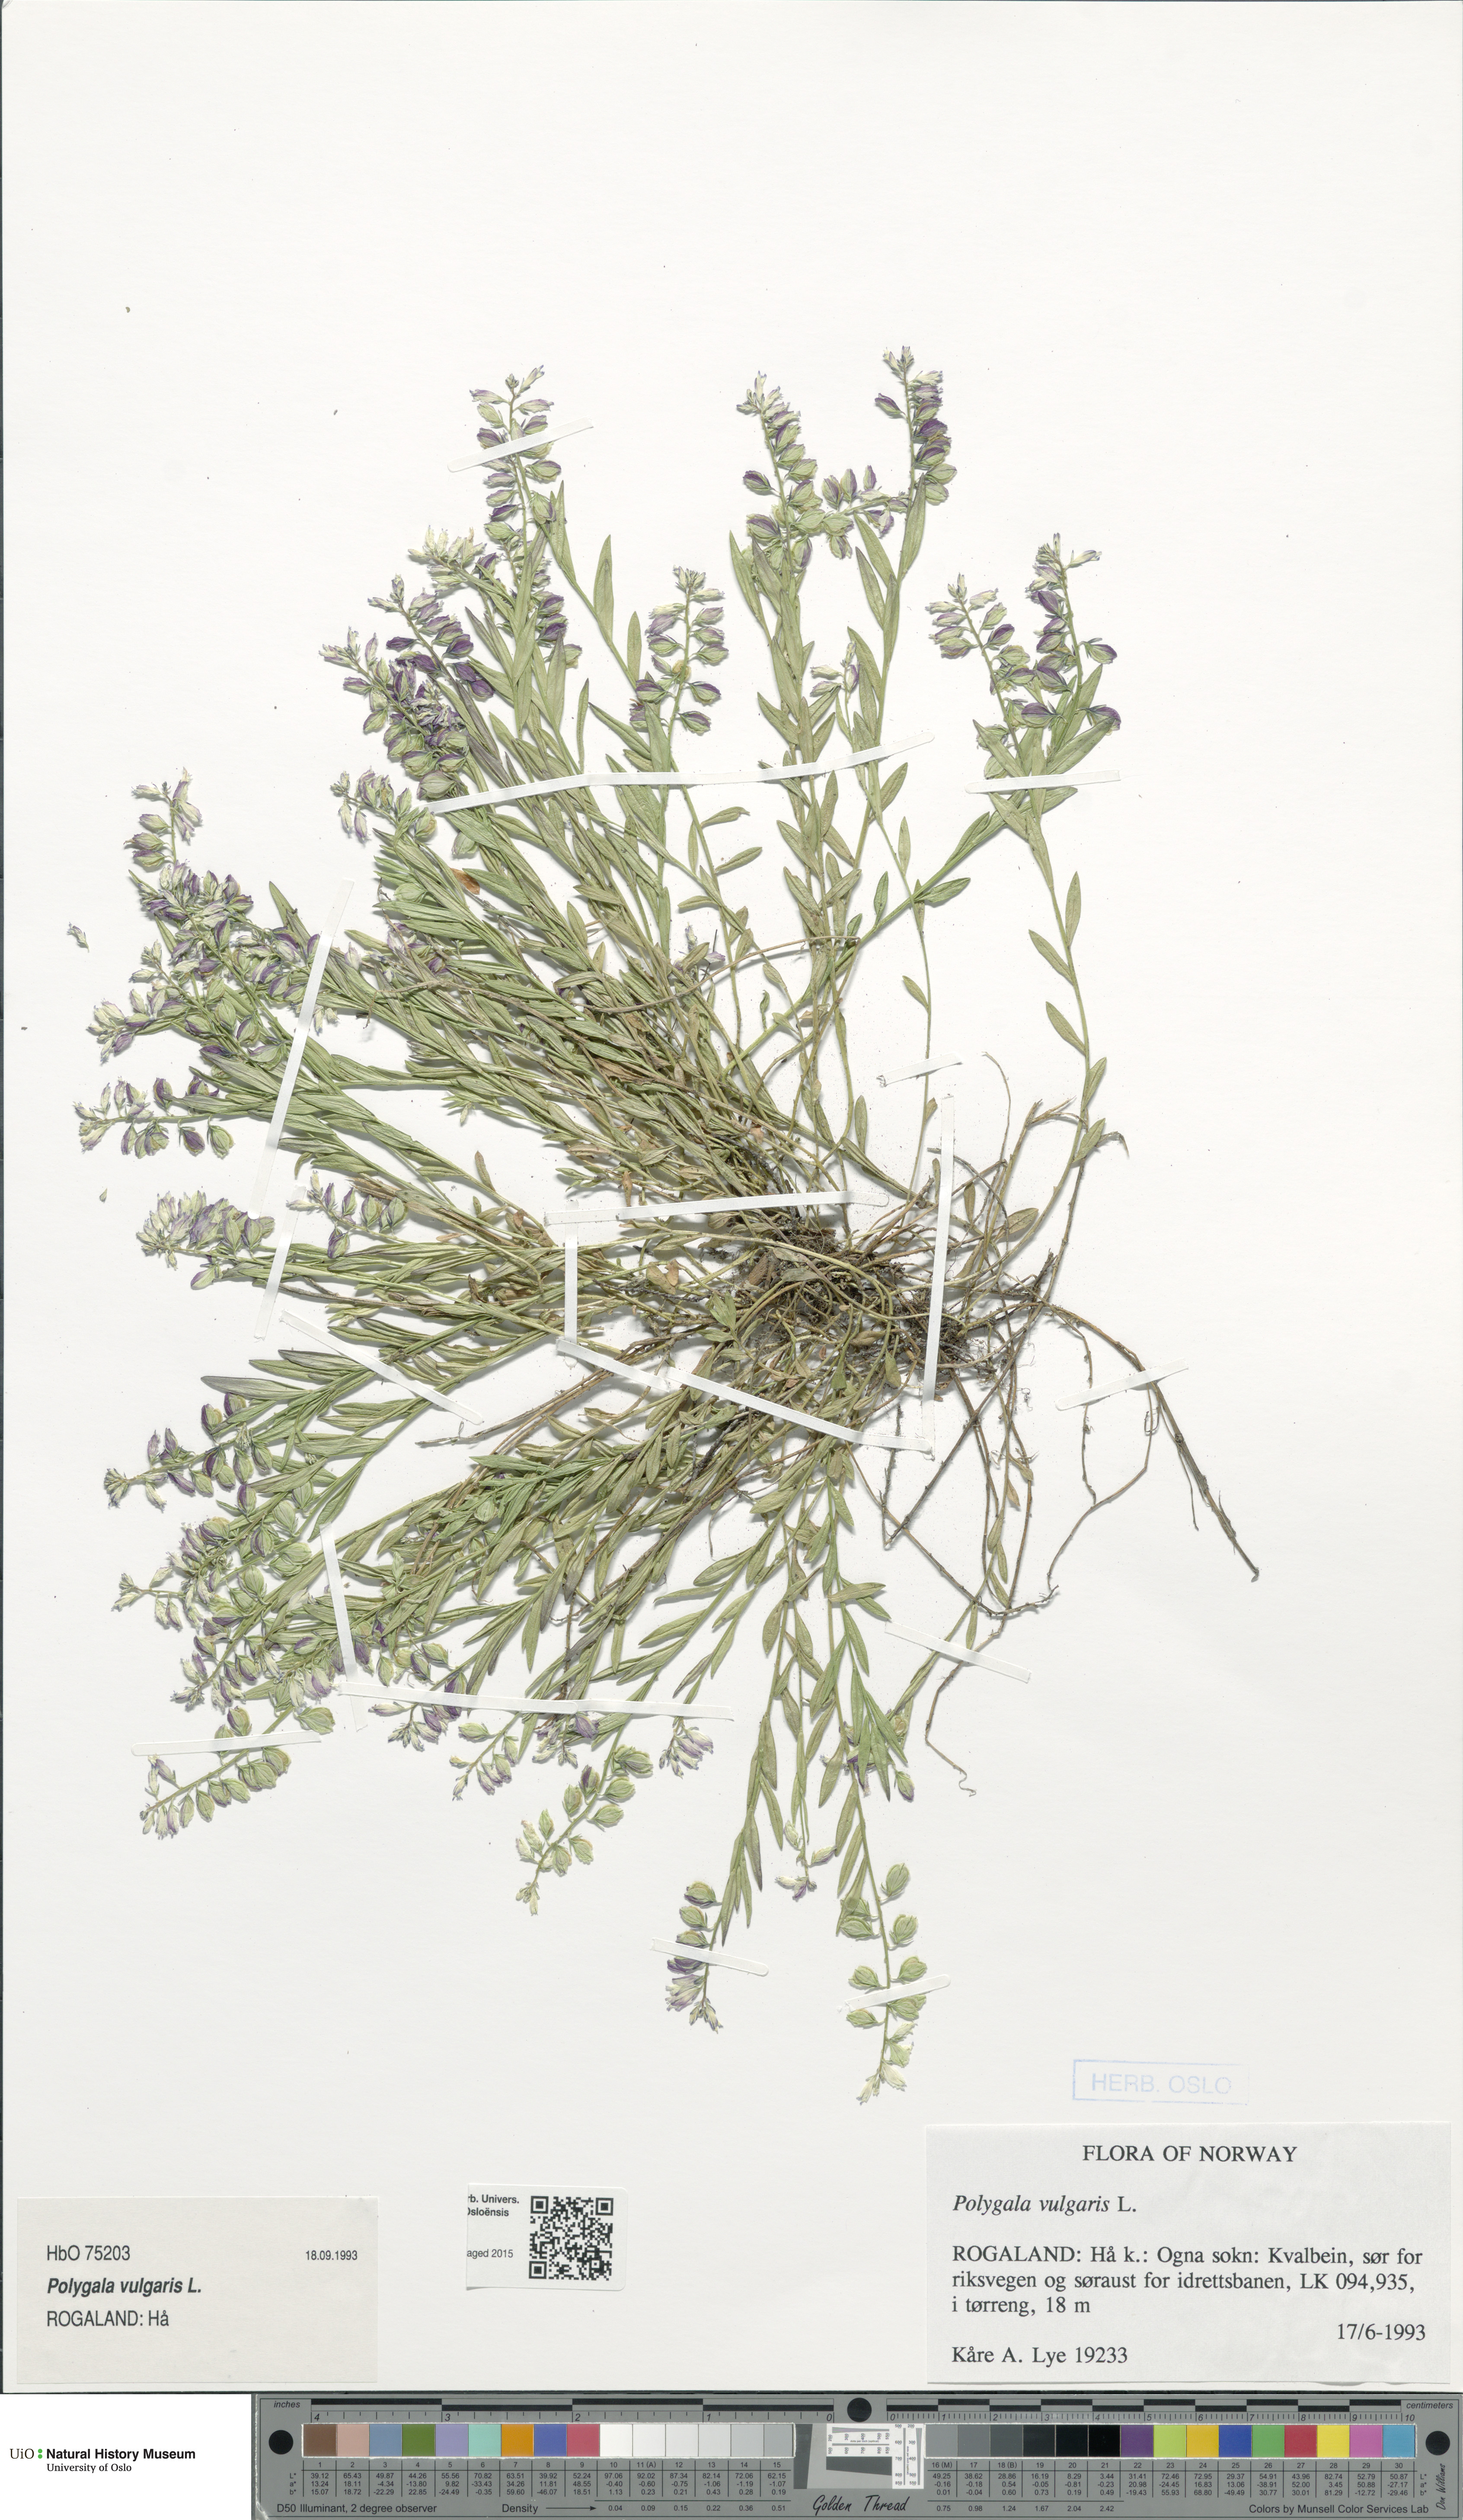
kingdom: Plantae
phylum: Tracheophyta
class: Magnoliopsida
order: Fabales
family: Polygalaceae
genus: Polygala
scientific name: Polygala vulgaris
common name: Common milkwort
